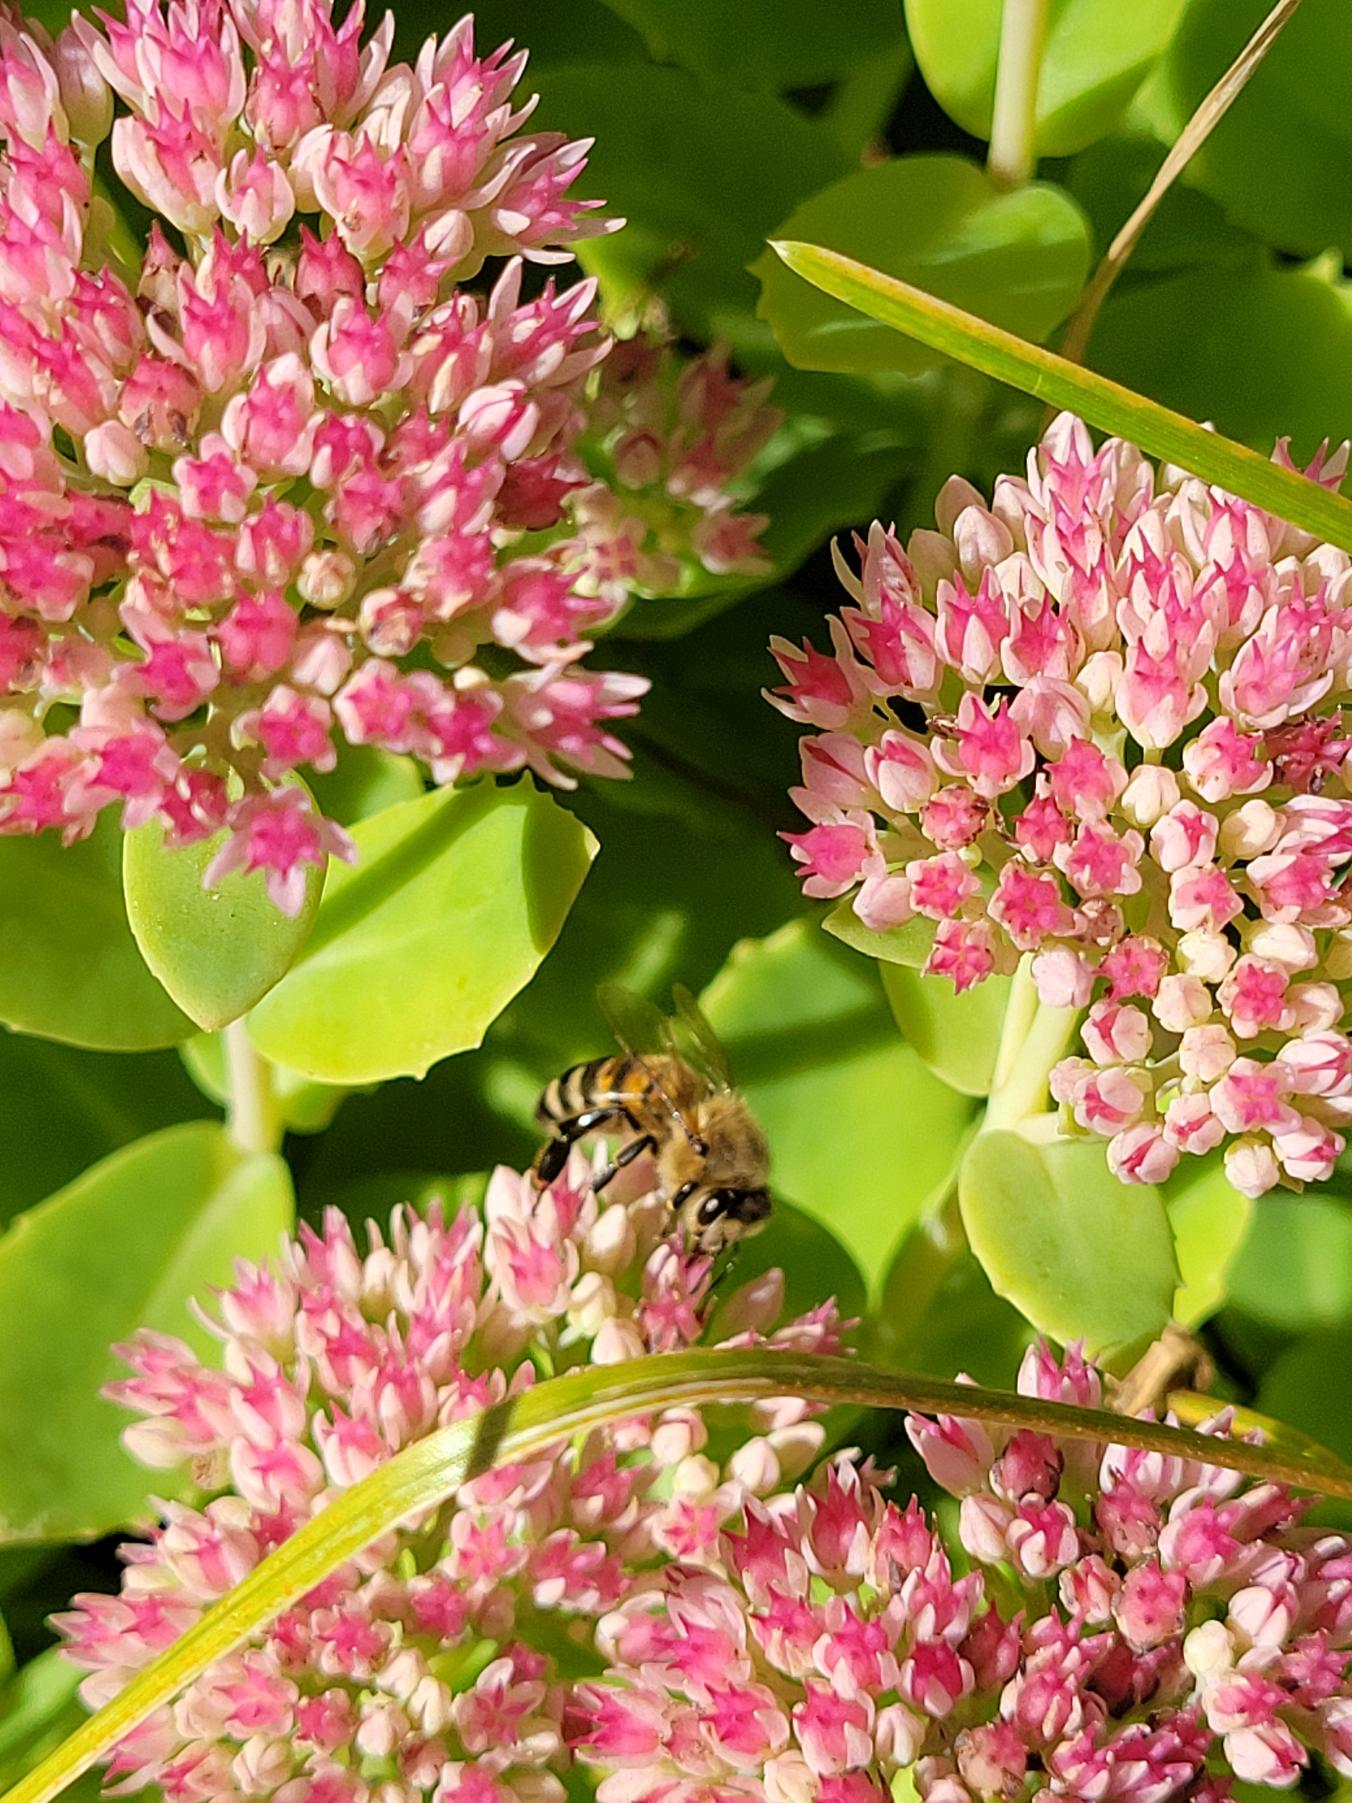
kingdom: Animalia
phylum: Arthropoda
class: Insecta
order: Hymenoptera
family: Apidae
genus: Apis
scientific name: Apis mellifera
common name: Honningbi
